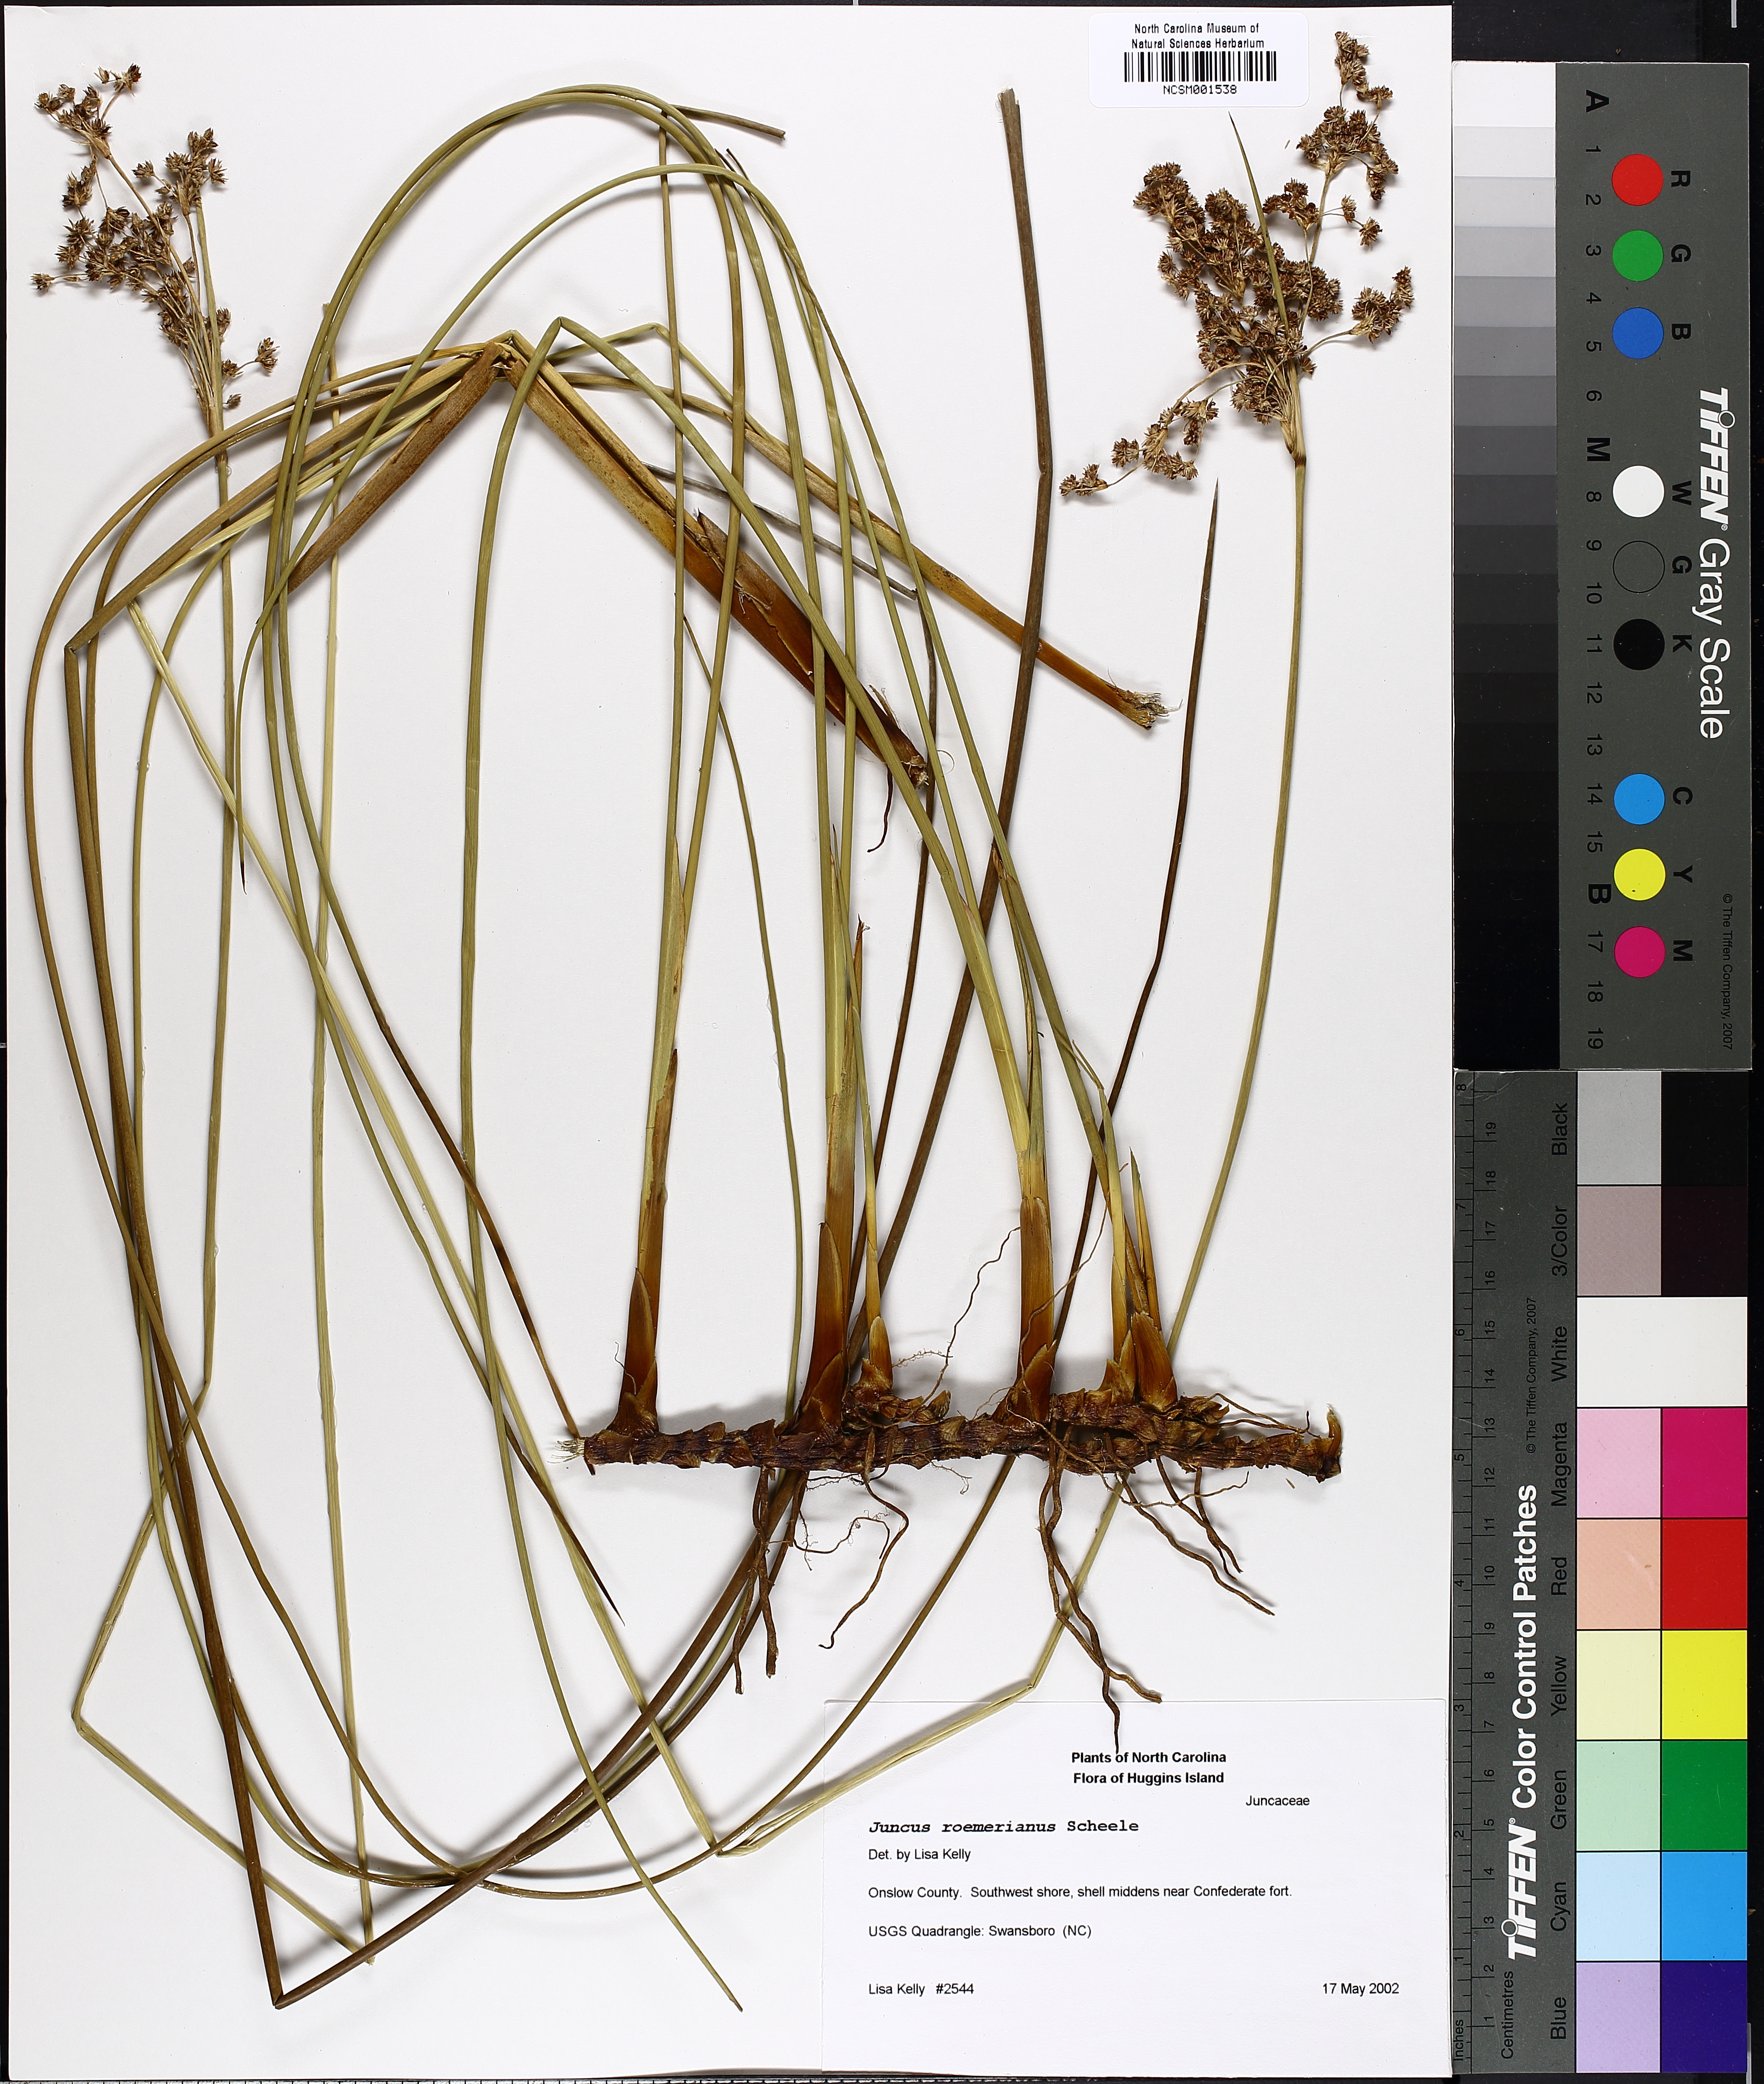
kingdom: Plantae
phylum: Tracheophyta
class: Liliopsida
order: Poales
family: Juncaceae
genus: Juncus
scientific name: Juncus roemerianus
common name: Roemer's rush
